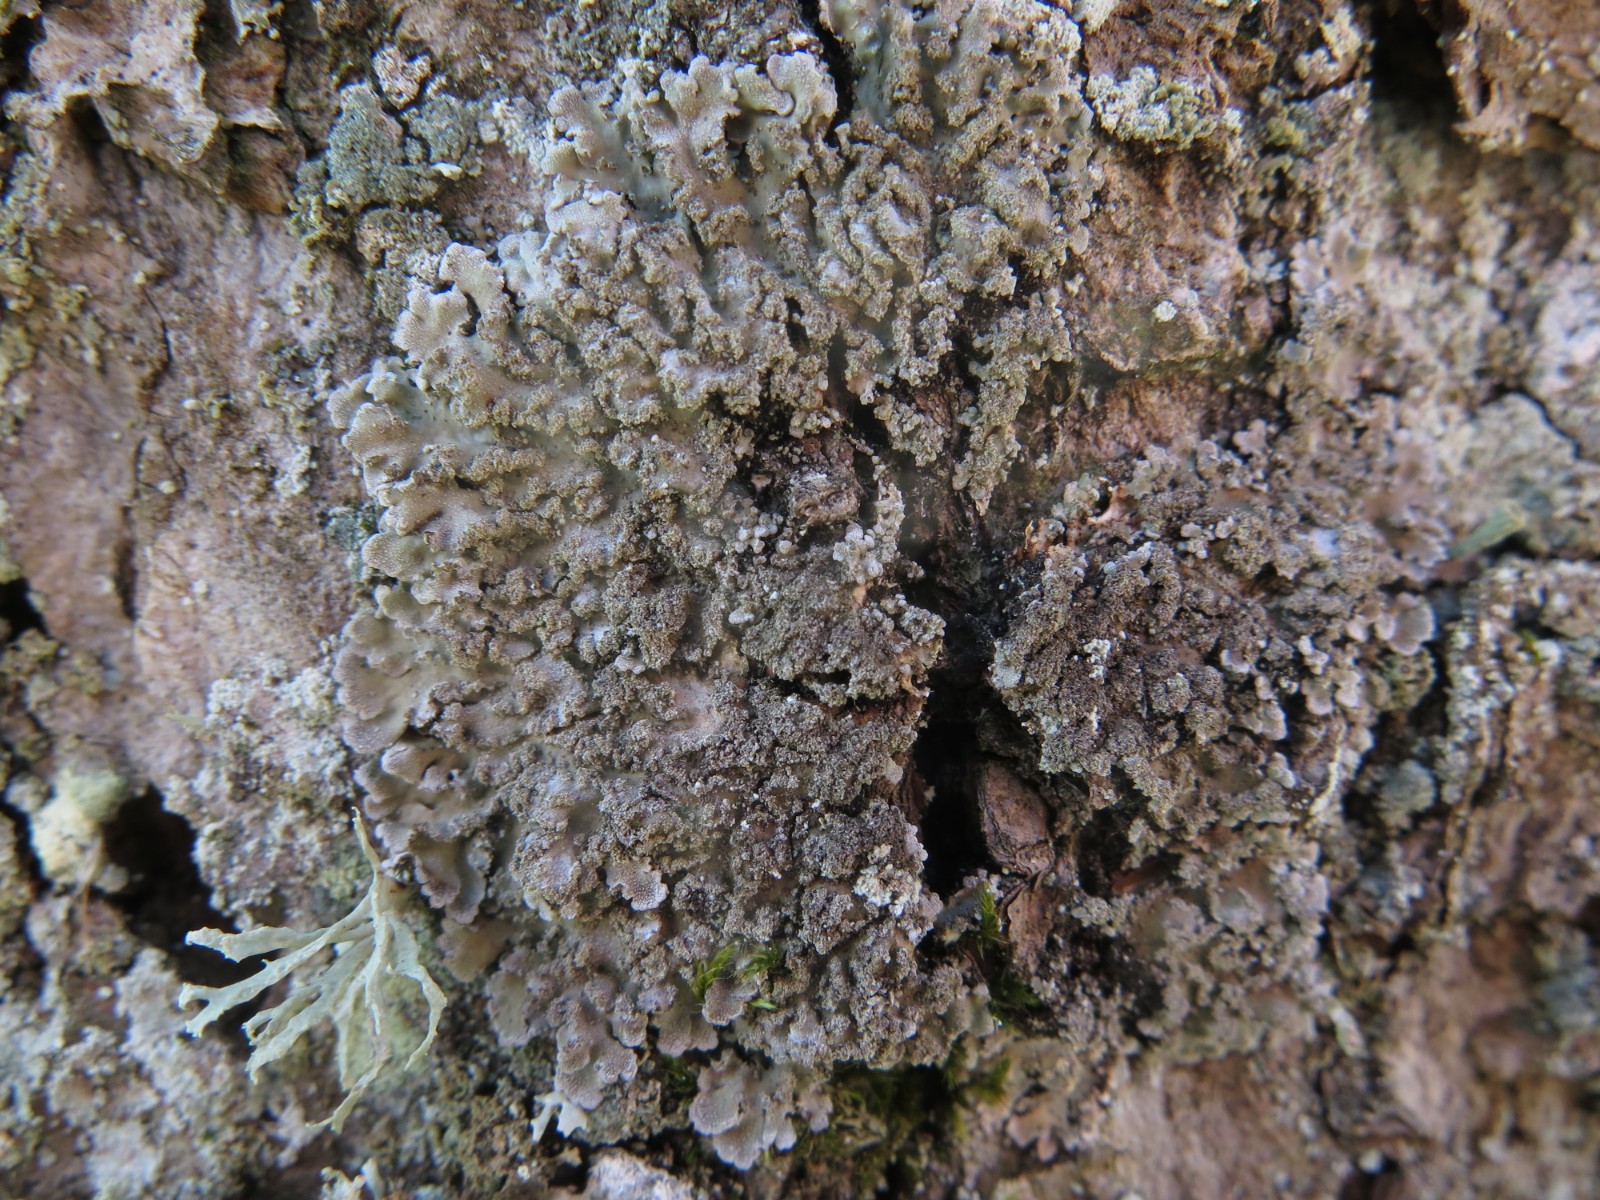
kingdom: Fungi
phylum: Ascomycota
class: Lecanoromycetes
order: Caliciales
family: Physciaceae
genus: Physconia
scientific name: Physconia enteroxantha
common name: grynet dugrosetlav
